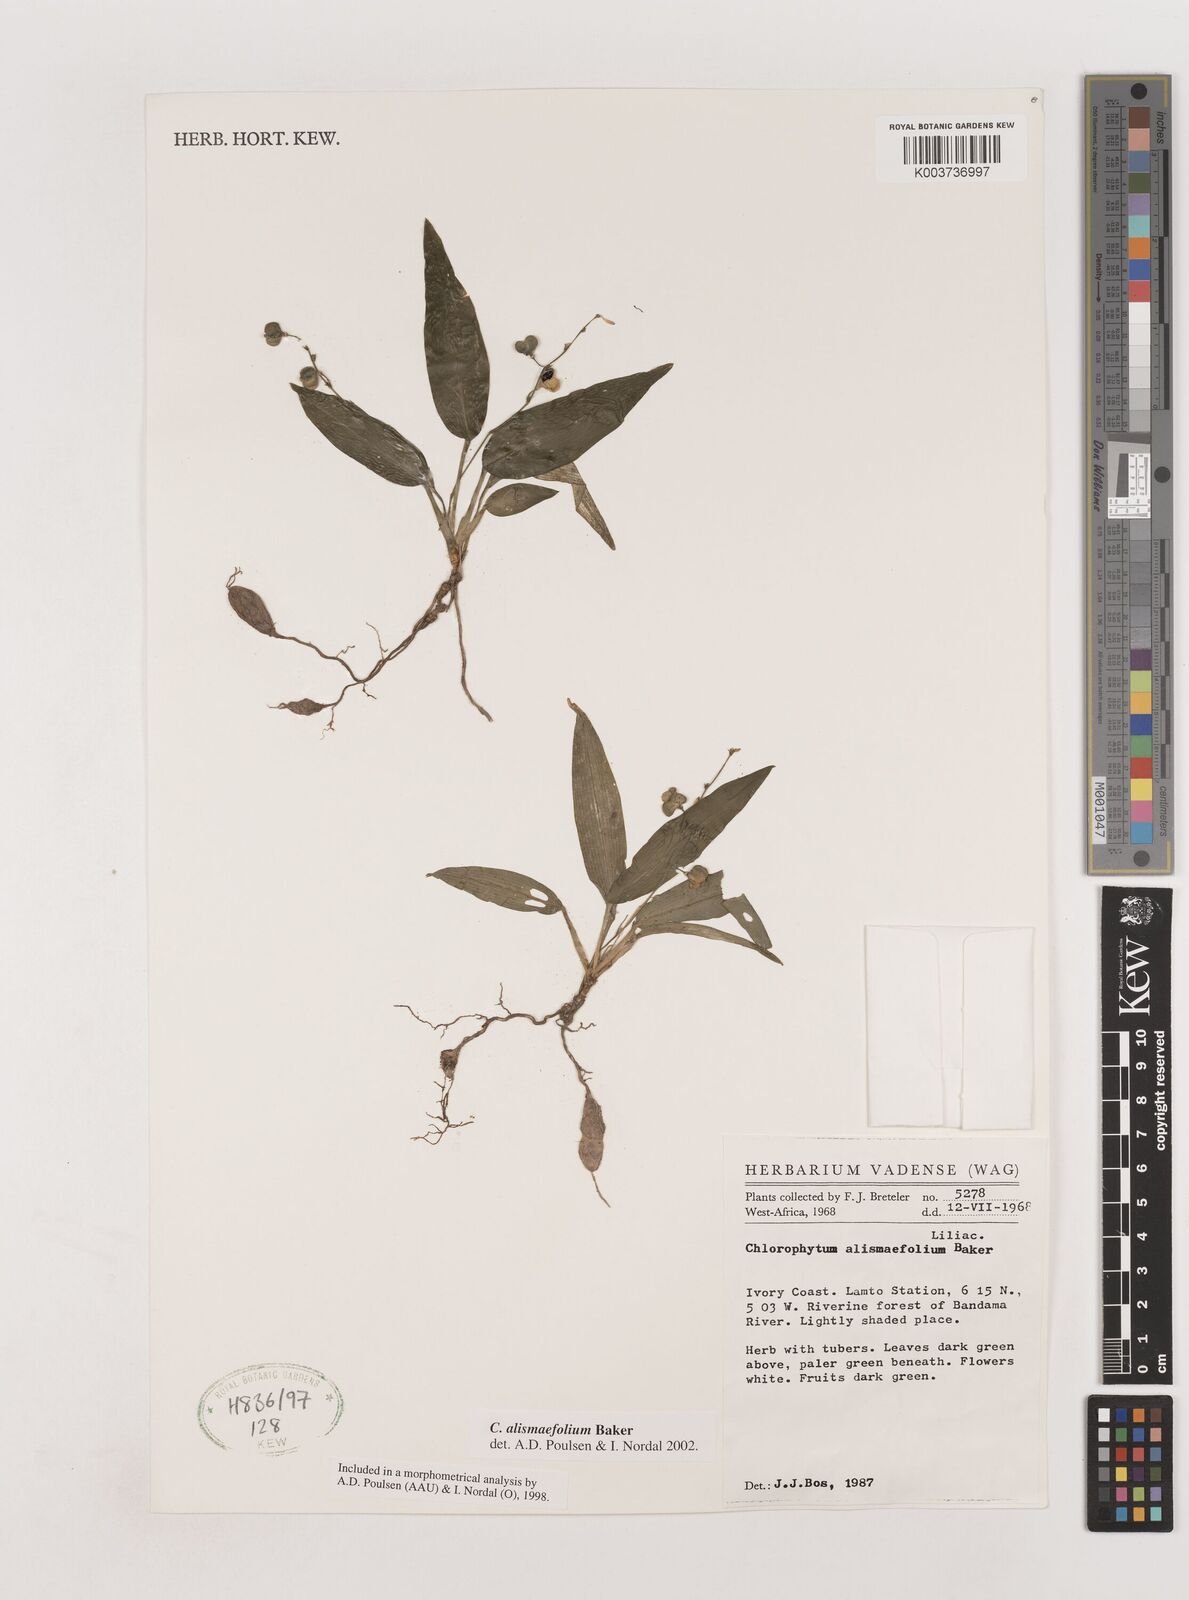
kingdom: Plantae
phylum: Tracheophyta
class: Liliopsida
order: Asparagales
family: Asparagaceae
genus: Chlorophytum
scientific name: Chlorophytum alismifolium
